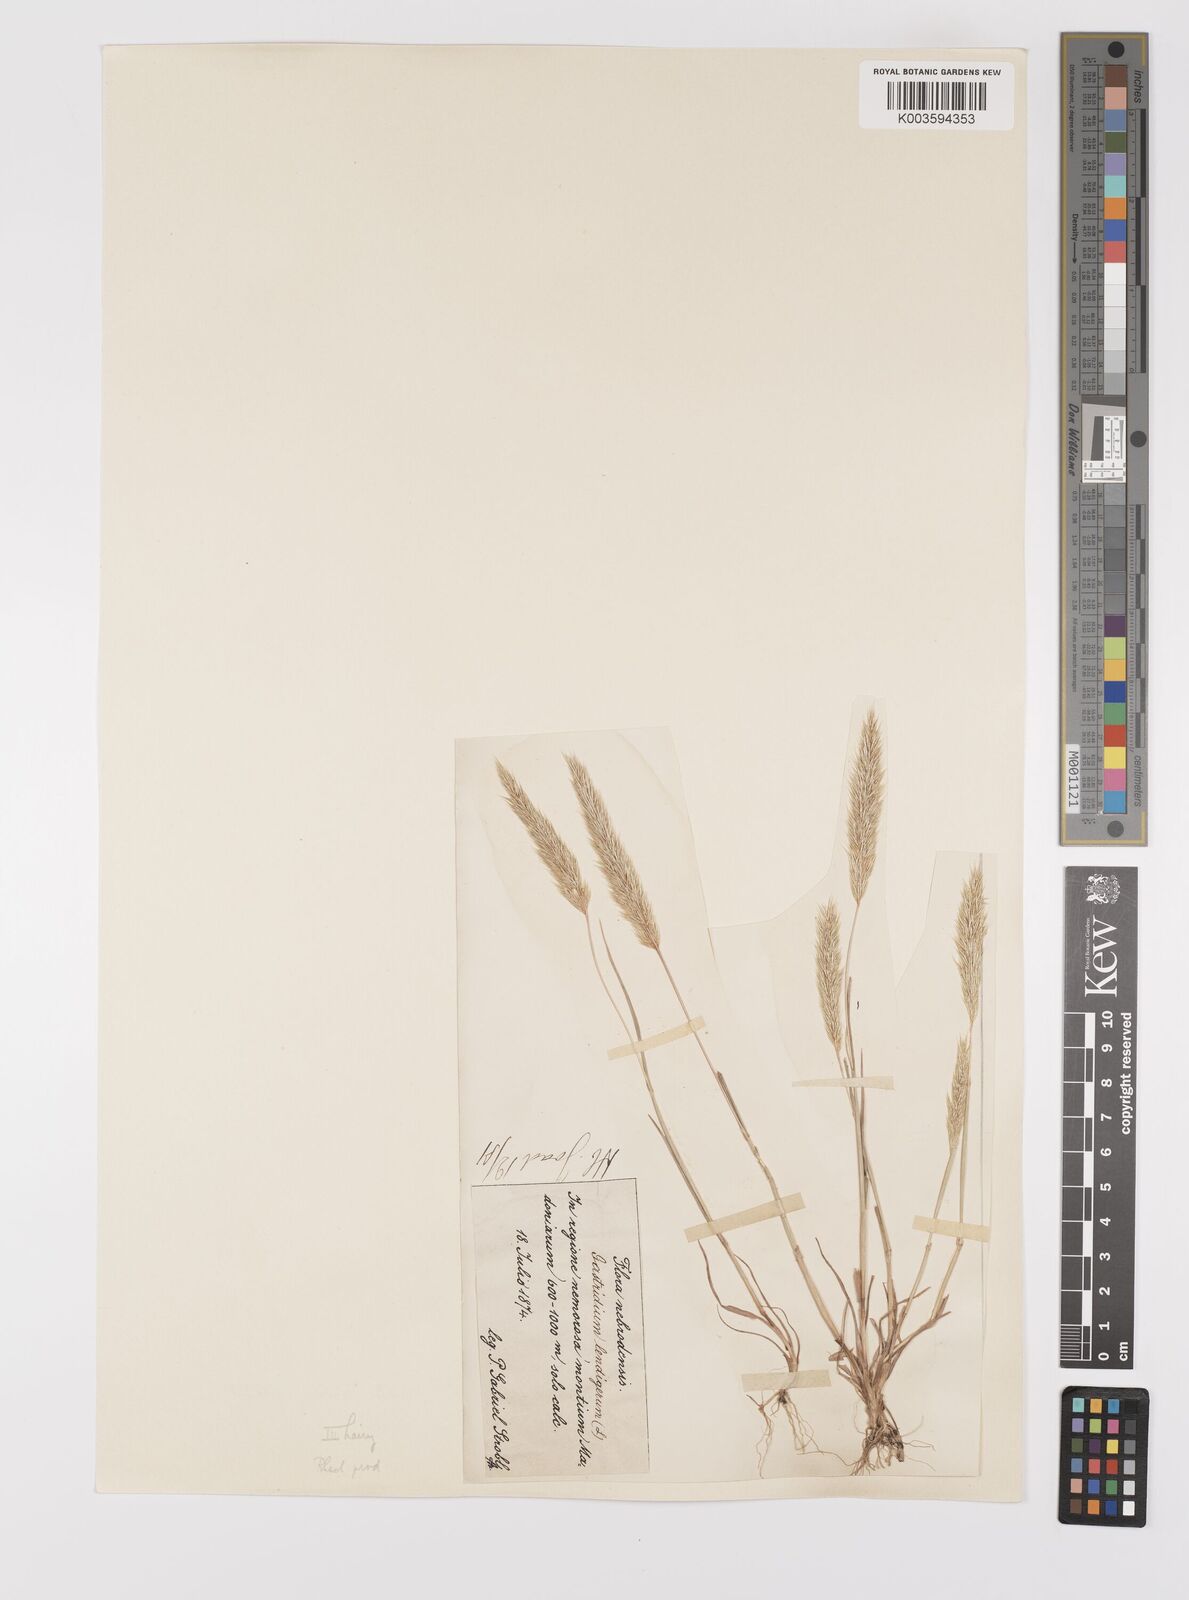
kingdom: Plantae
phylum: Tracheophyta
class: Liliopsida
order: Poales
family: Poaceae
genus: Gastridium
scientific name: Gastridium phleoides
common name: Nit grass
